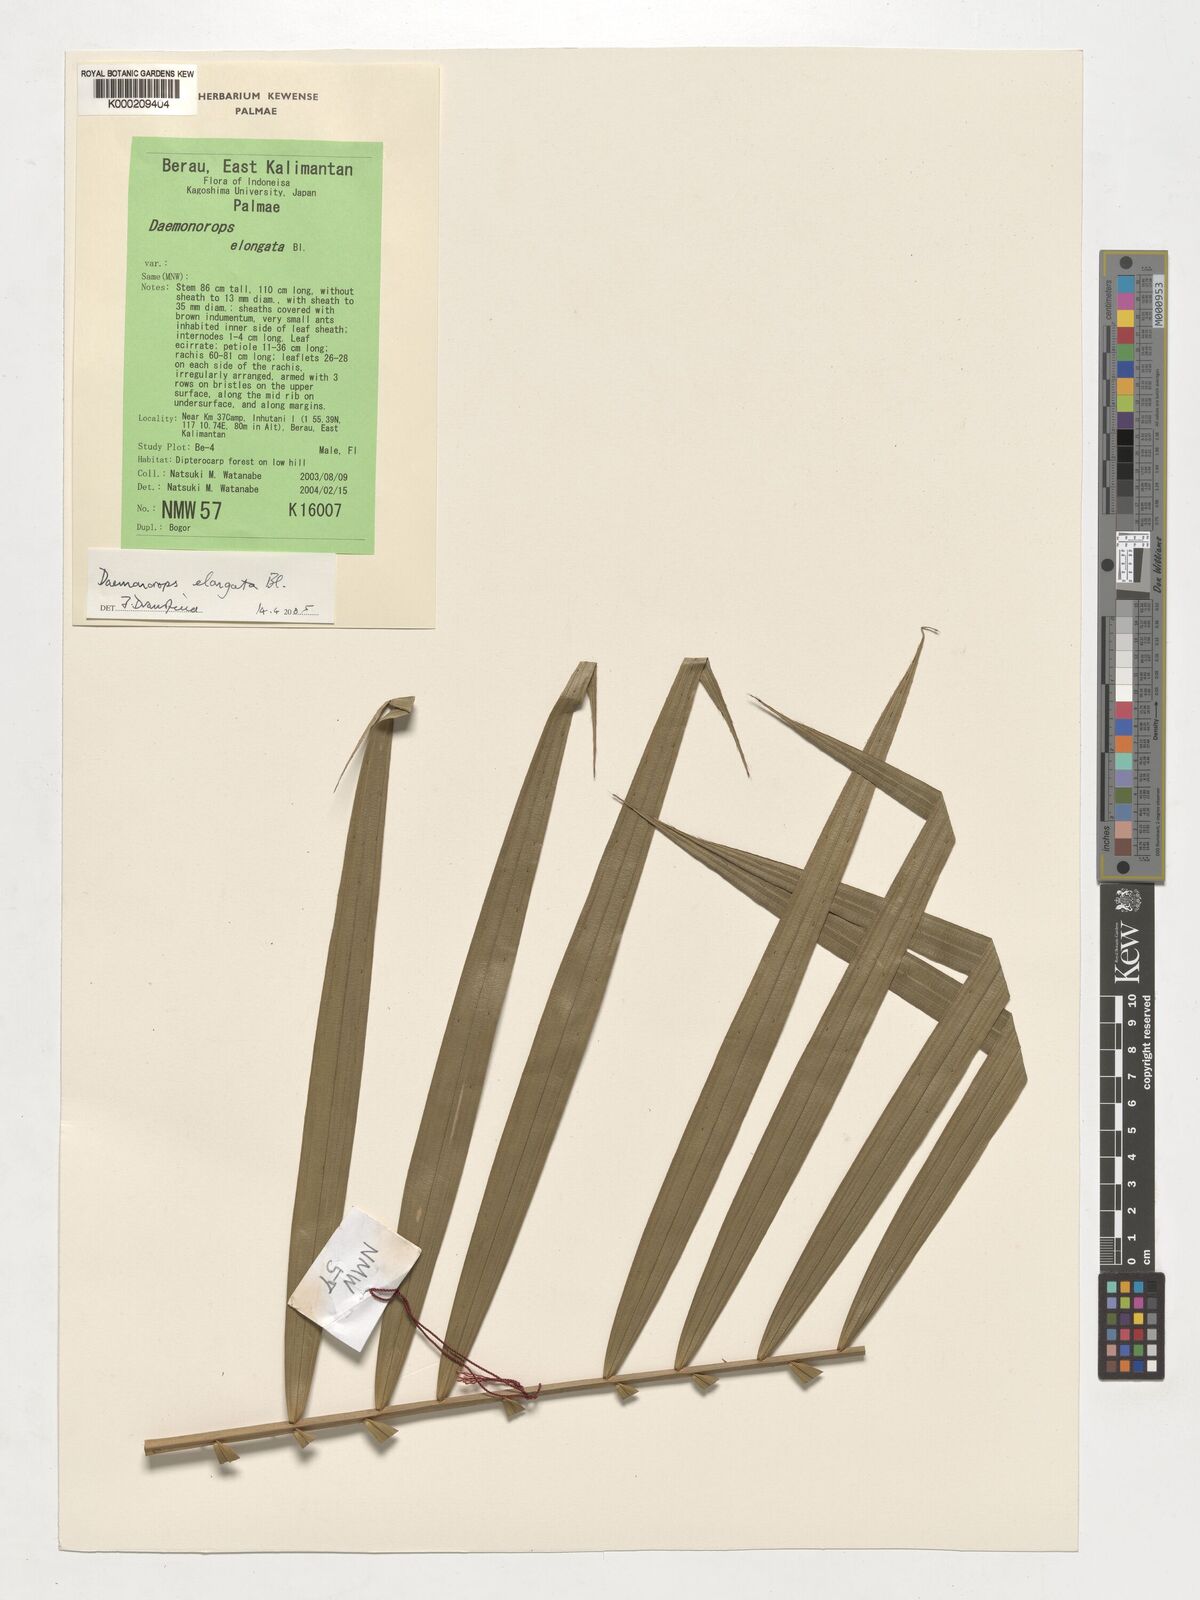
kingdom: Plantae
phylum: Tracheophyta
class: Liliopsida
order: Arecales
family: Arecaceae
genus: Calamus
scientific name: Calamus oblongus
